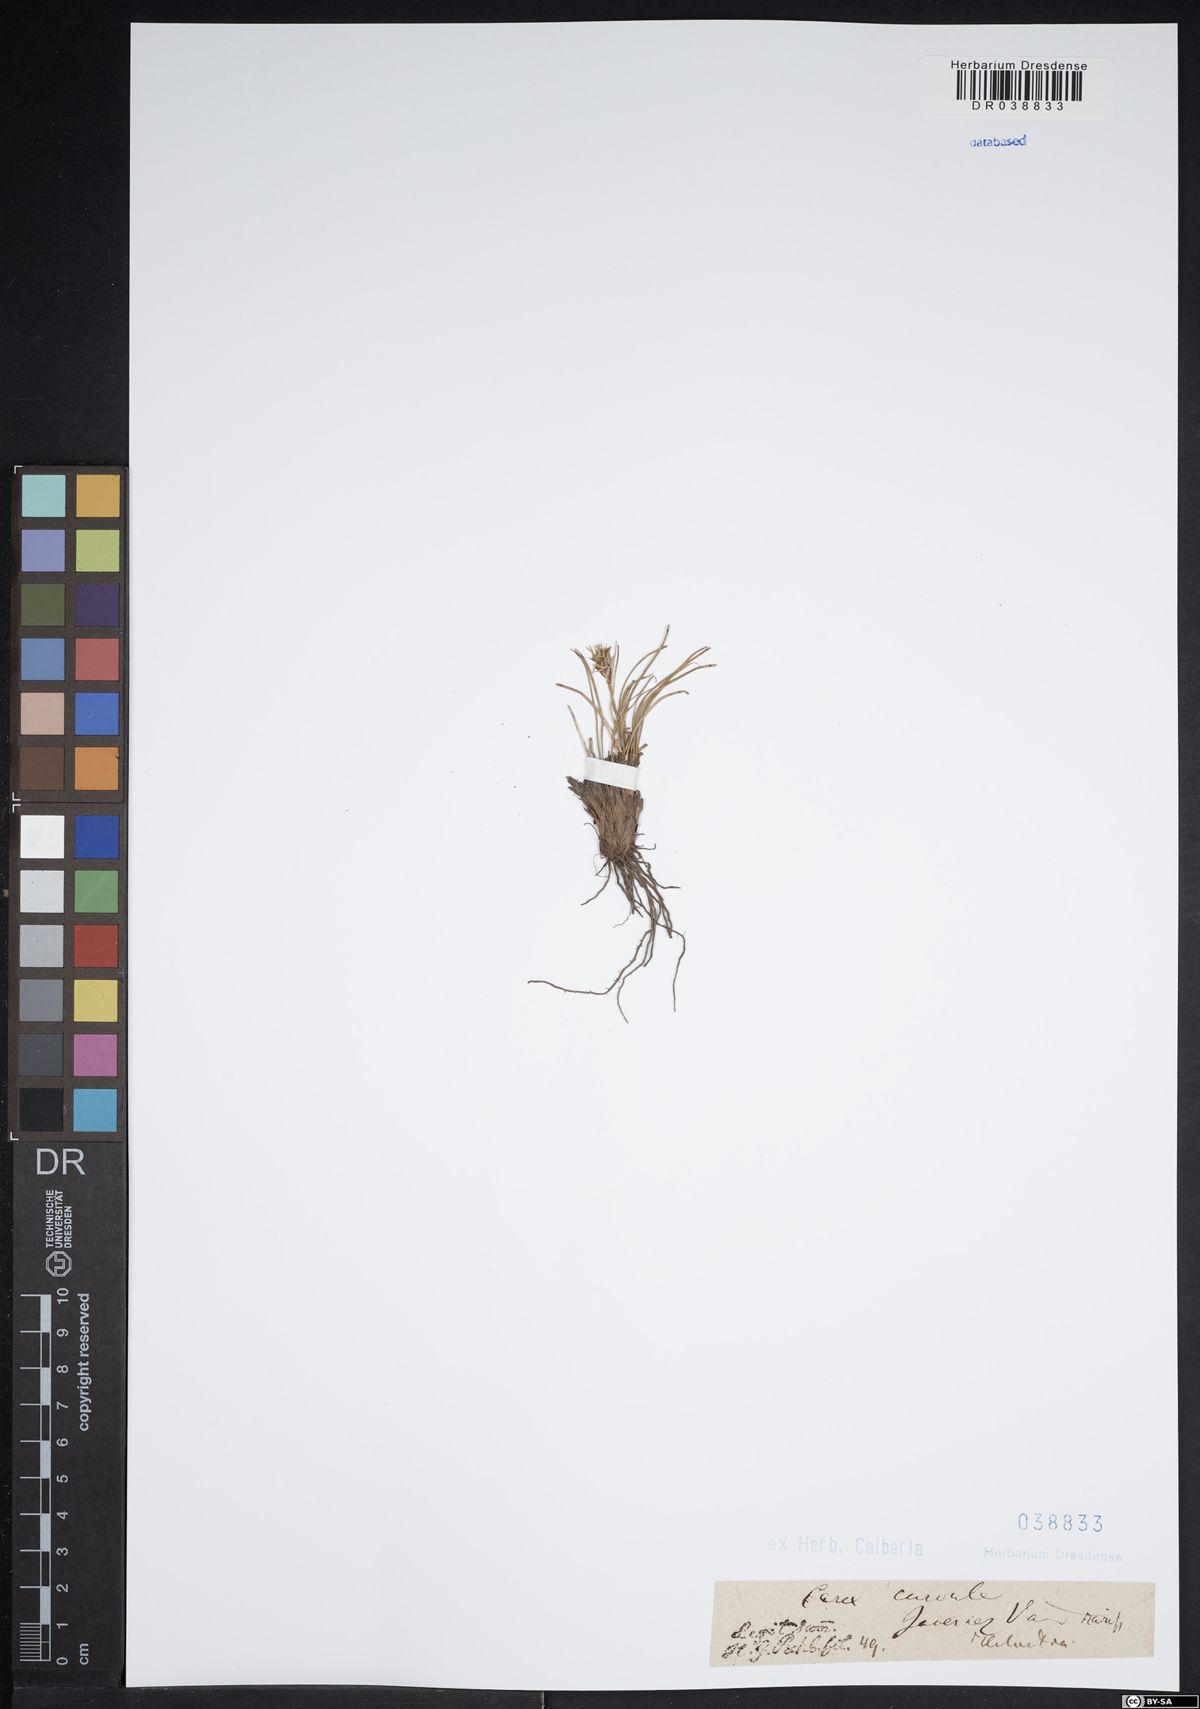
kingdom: Plantae
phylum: Tracheophyta
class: Liliopsida
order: Poales
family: Cyperaceae
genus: Carex
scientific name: Carex curvula
